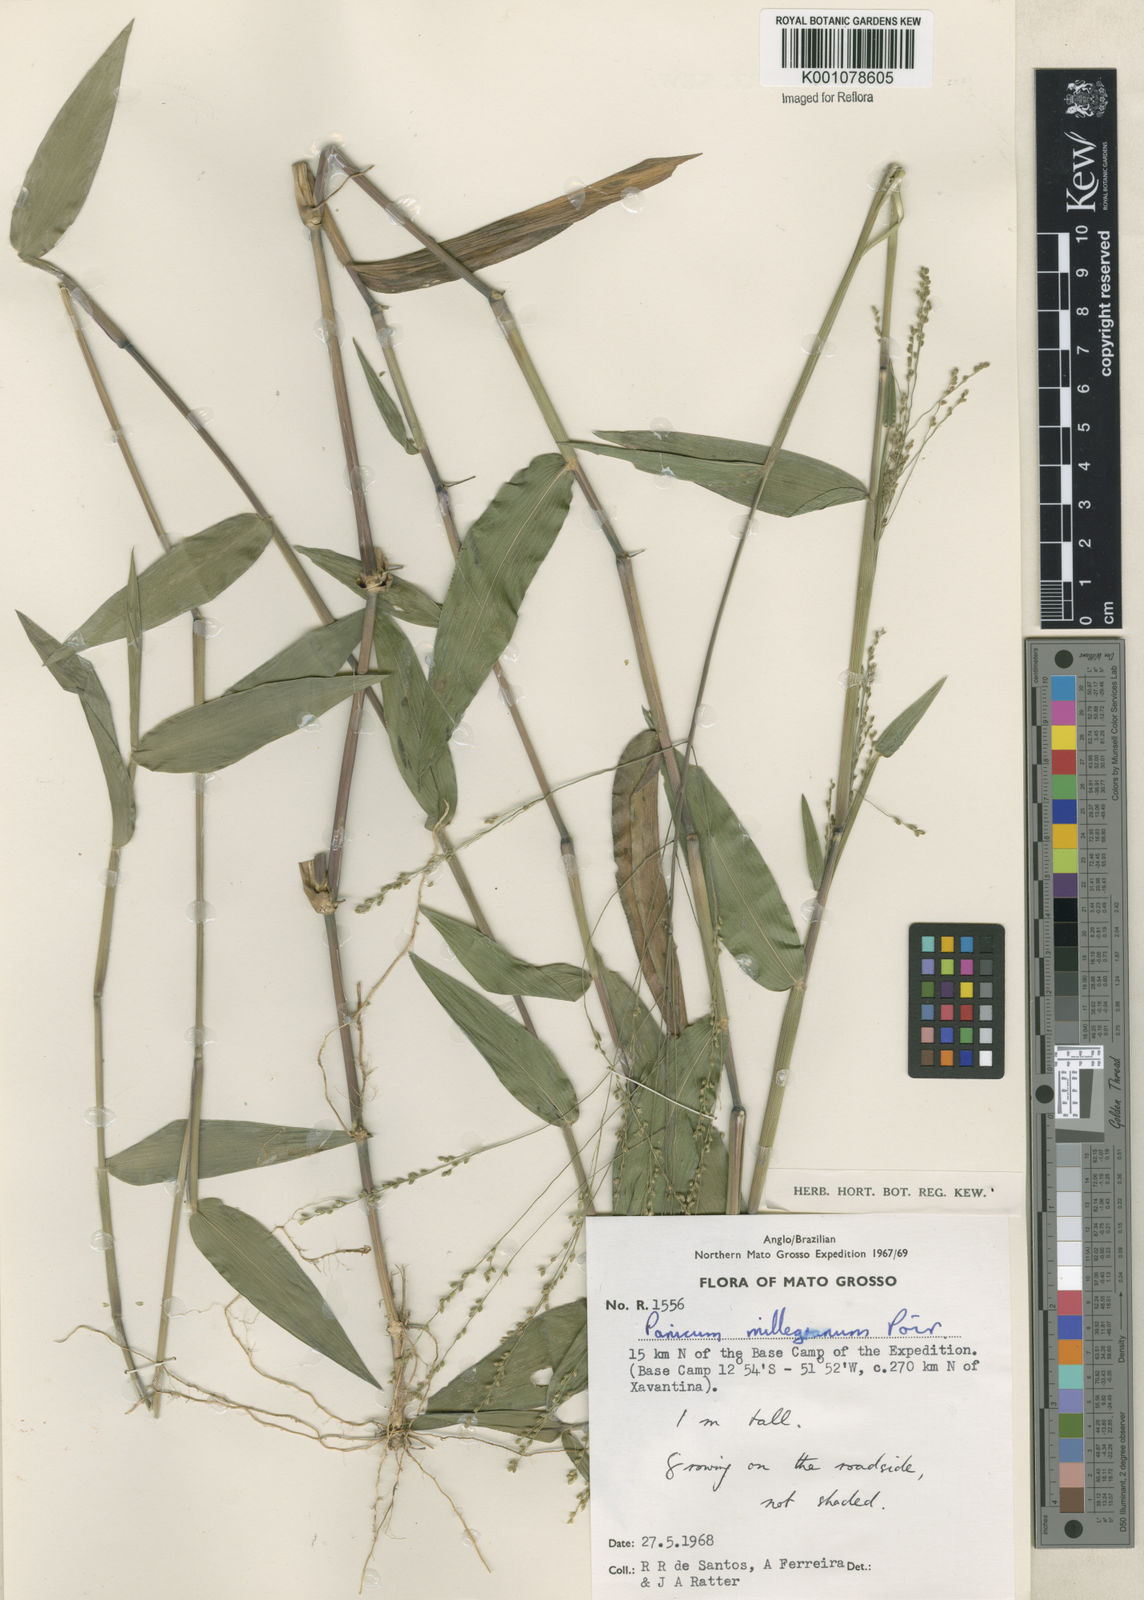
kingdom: Plantae
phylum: Tracheophyta
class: Liliopsida
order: Poales
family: Poaceae
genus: Panicum
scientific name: Panicum sellowii
